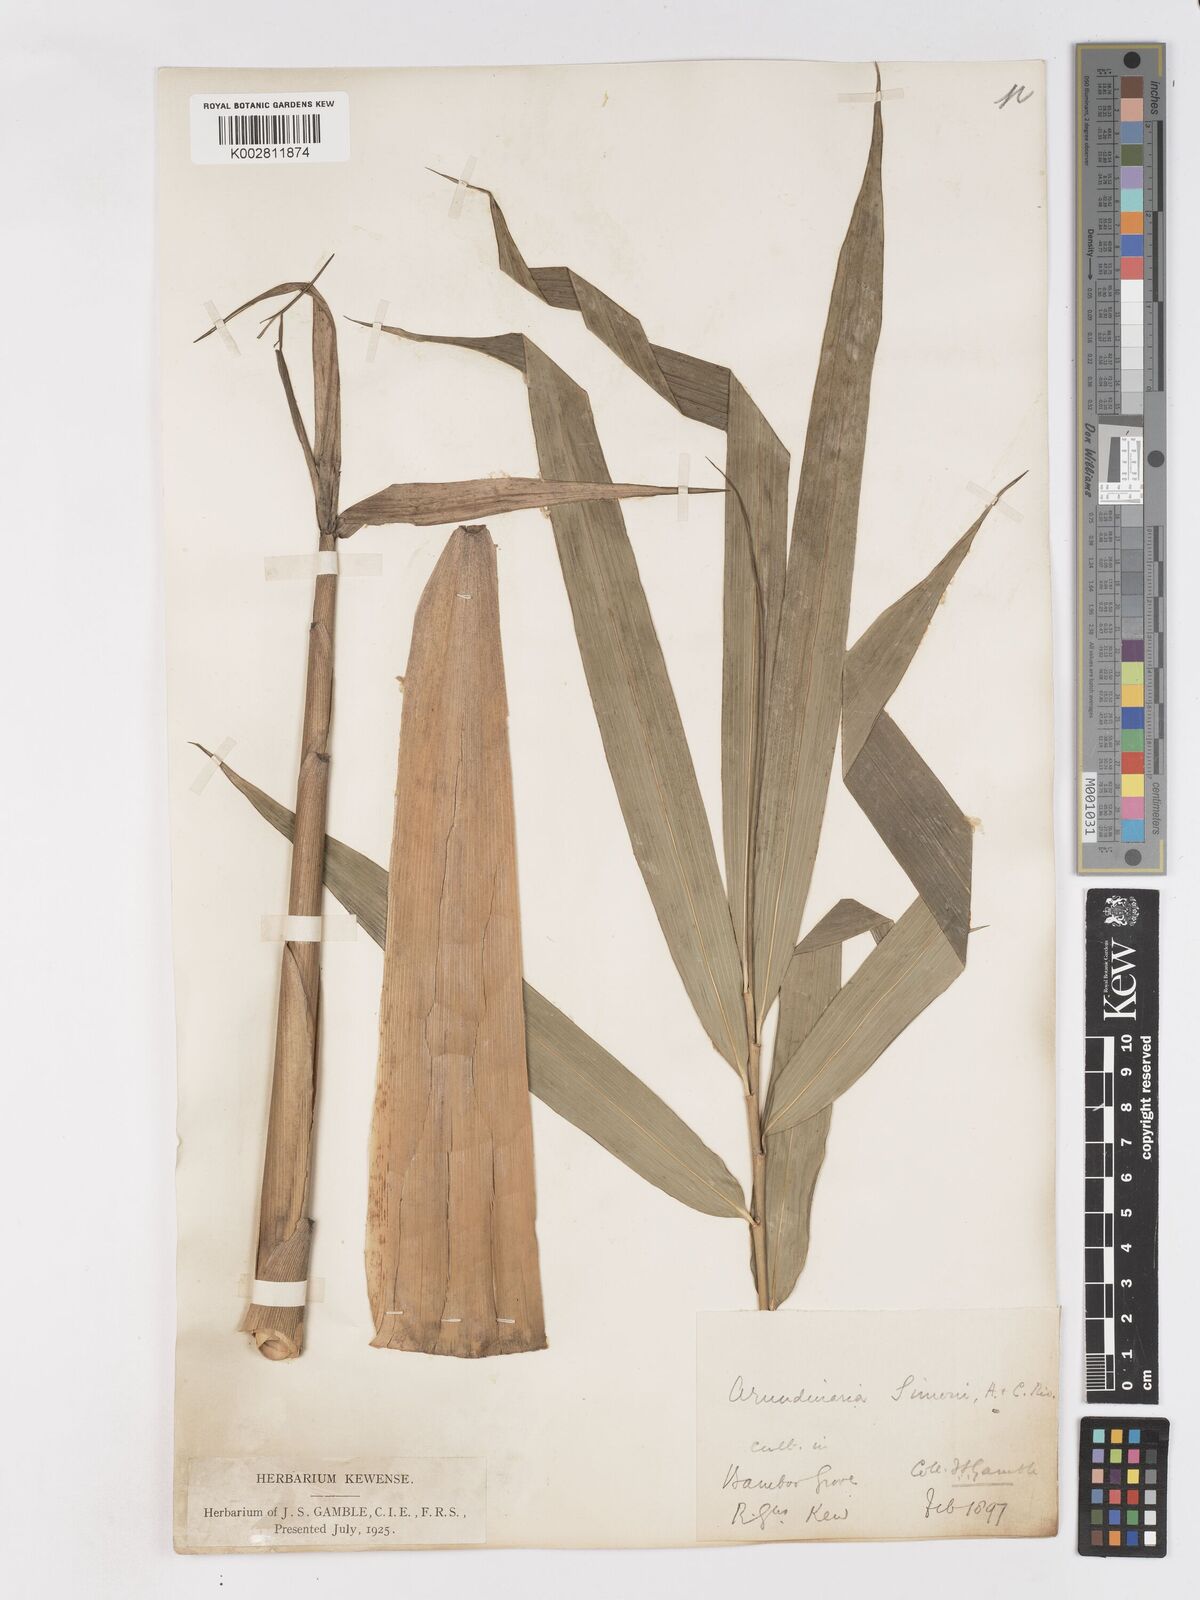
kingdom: Plantae
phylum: Tracheophyta
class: Liliopsida
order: Poales
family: Poaceae
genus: Pleioblastus
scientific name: Pleioblastus simonii
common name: Simon bamboo
